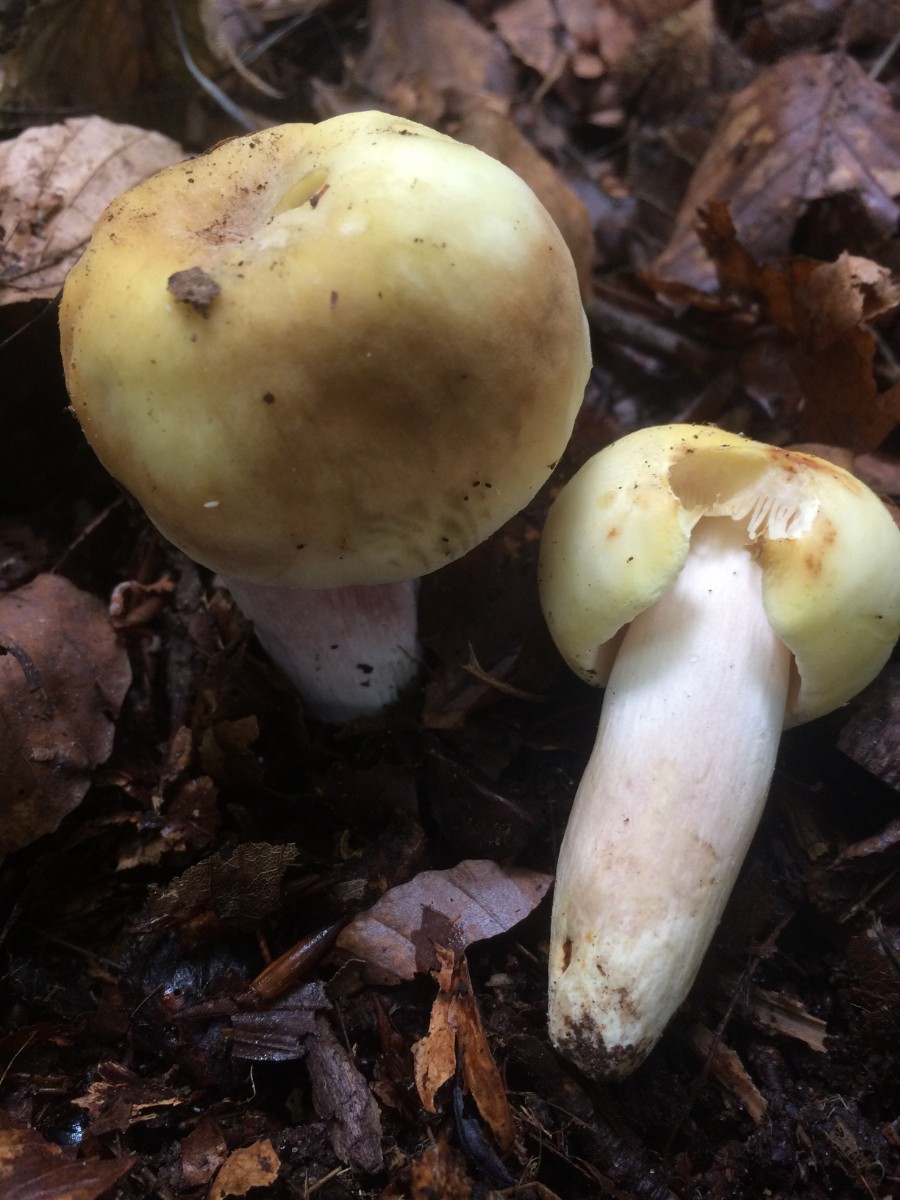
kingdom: Fungi
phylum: Basidiomycota
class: Agaricomycetes
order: Russulales
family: Russulaceae
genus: Russula
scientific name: Russula violeipes
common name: ferskengul skørhat
